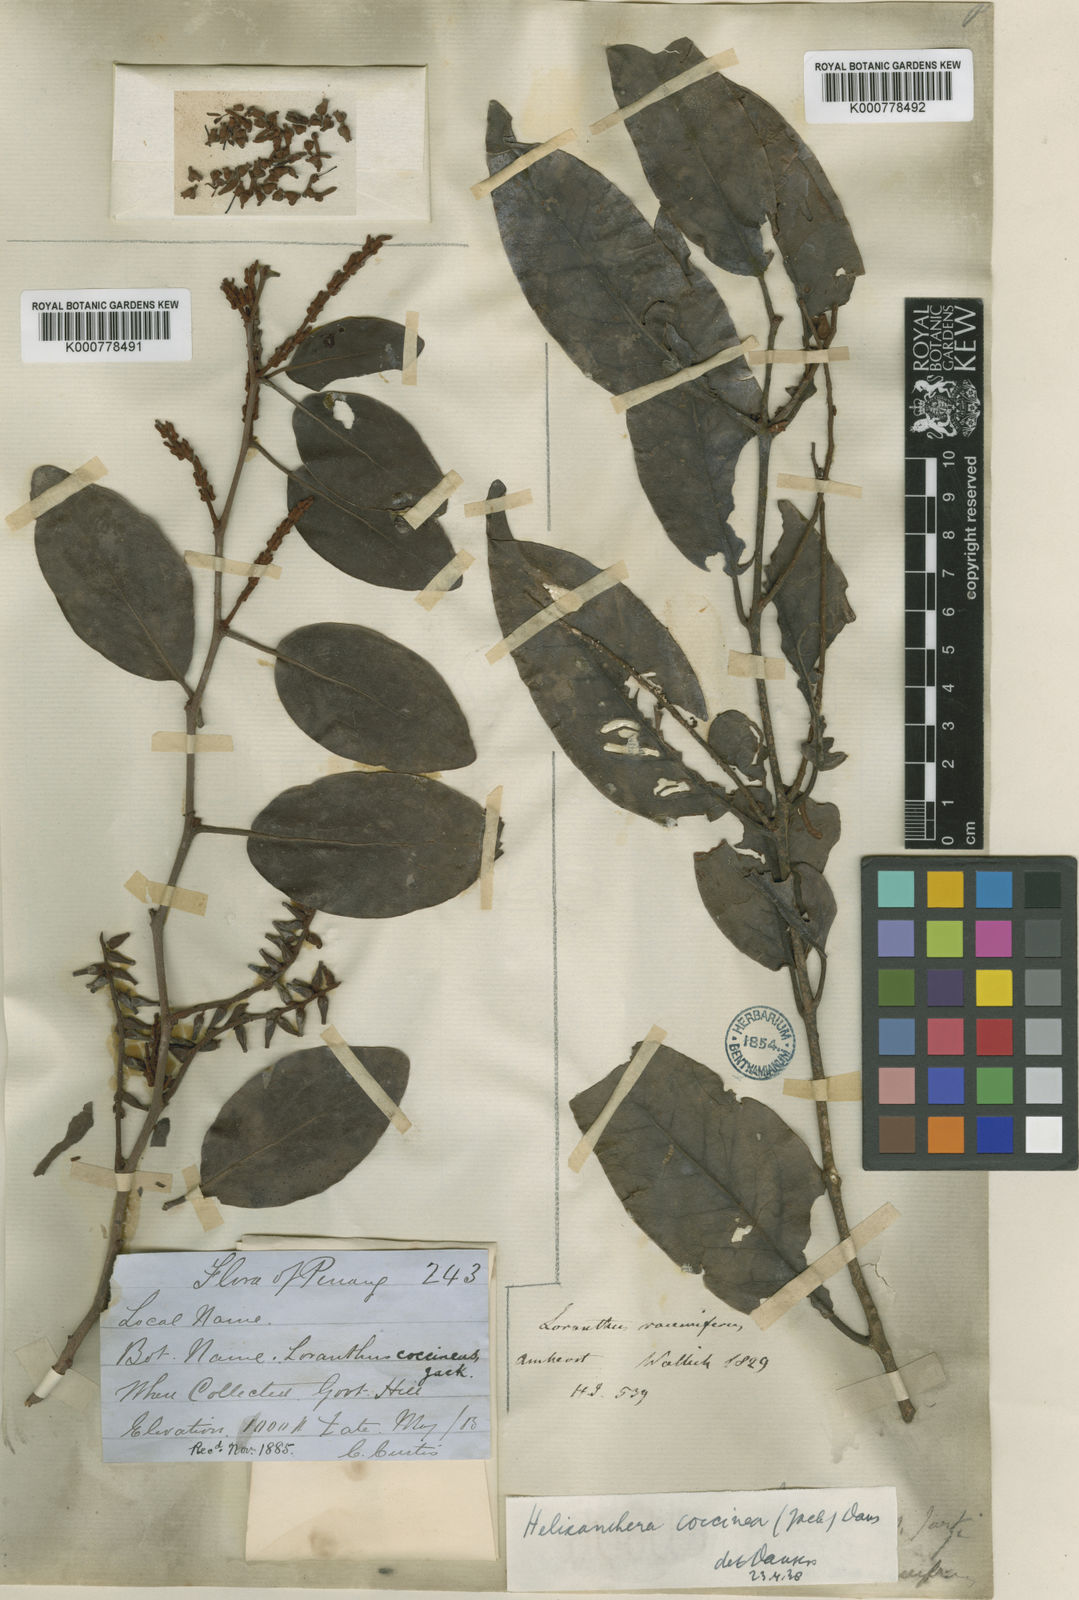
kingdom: Plantae
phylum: Tracheophyta
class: Magnoliopsida
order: Santalales
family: Loranthaceae
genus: Helixanthera
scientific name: Helixanthera coccinea
